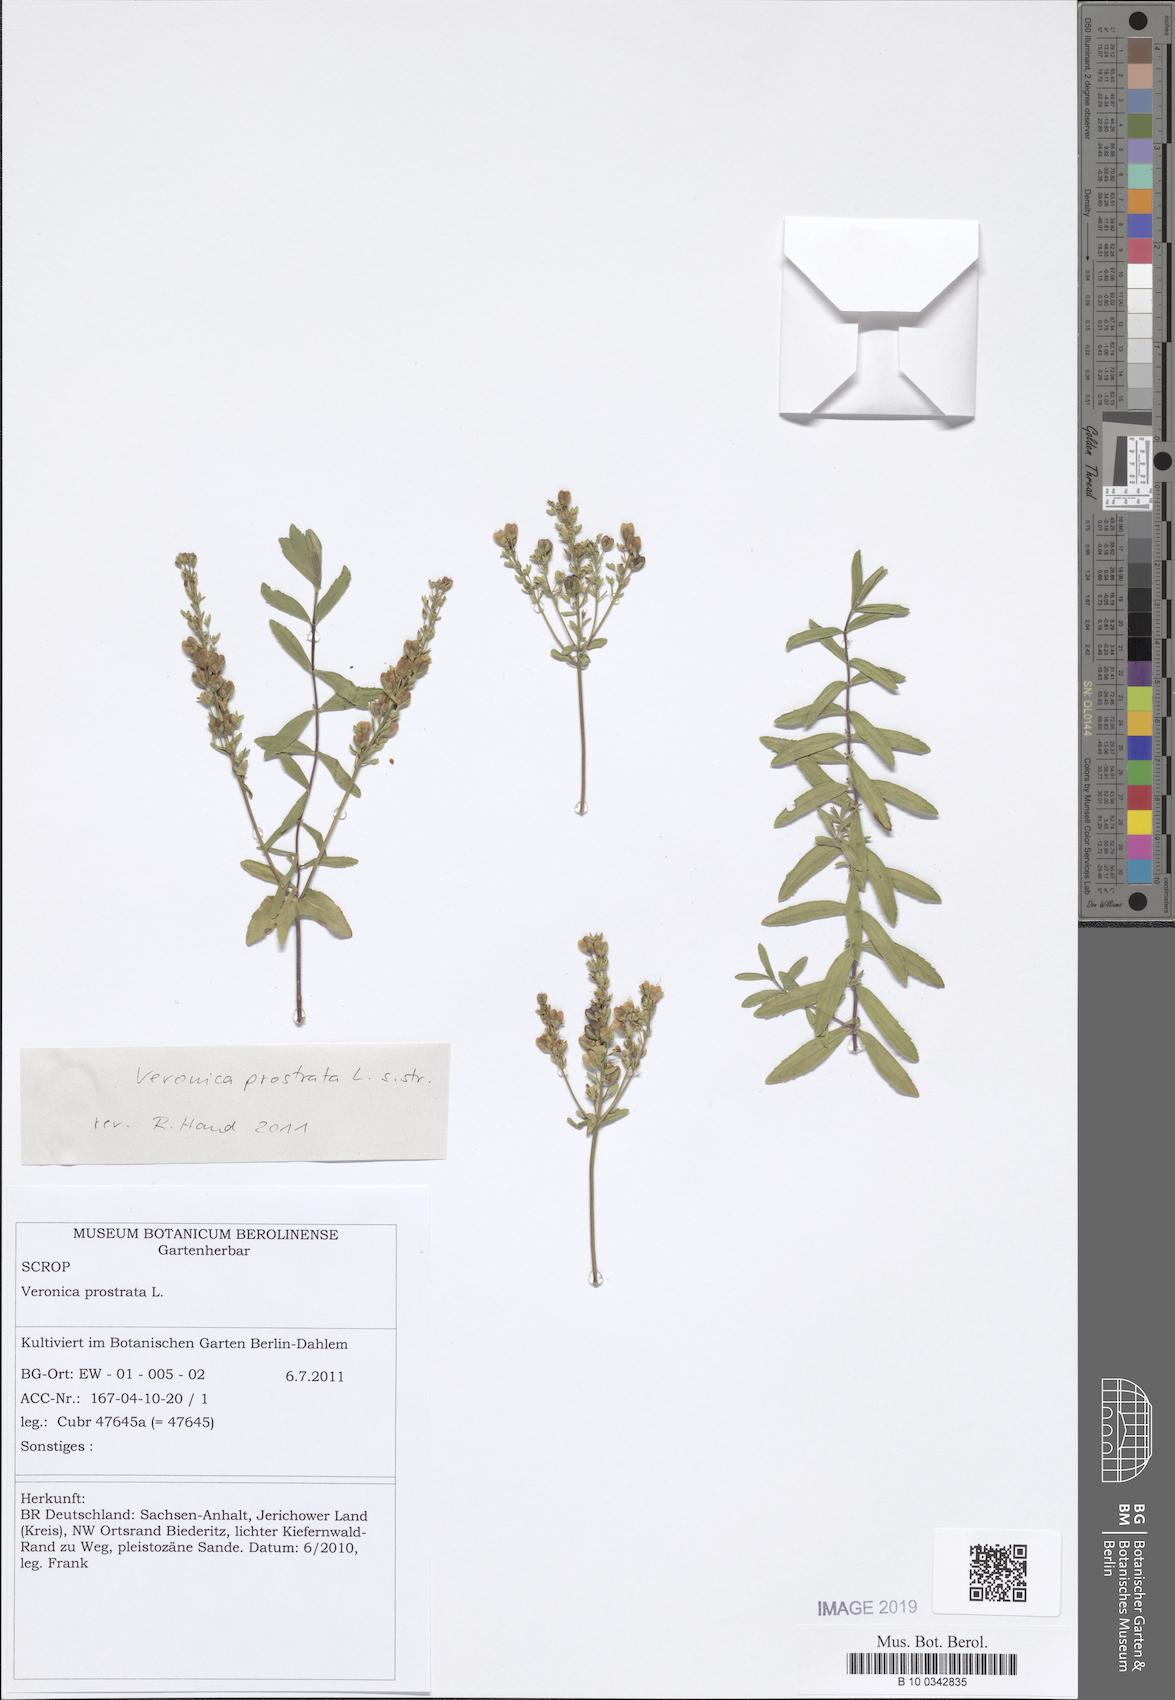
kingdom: Plantae
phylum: Tracheophyta
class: Magnoliopsida
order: Lamiales
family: Plantaginaceae
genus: Veronica
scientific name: Veronica prostrata
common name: Prostrate speedwell
